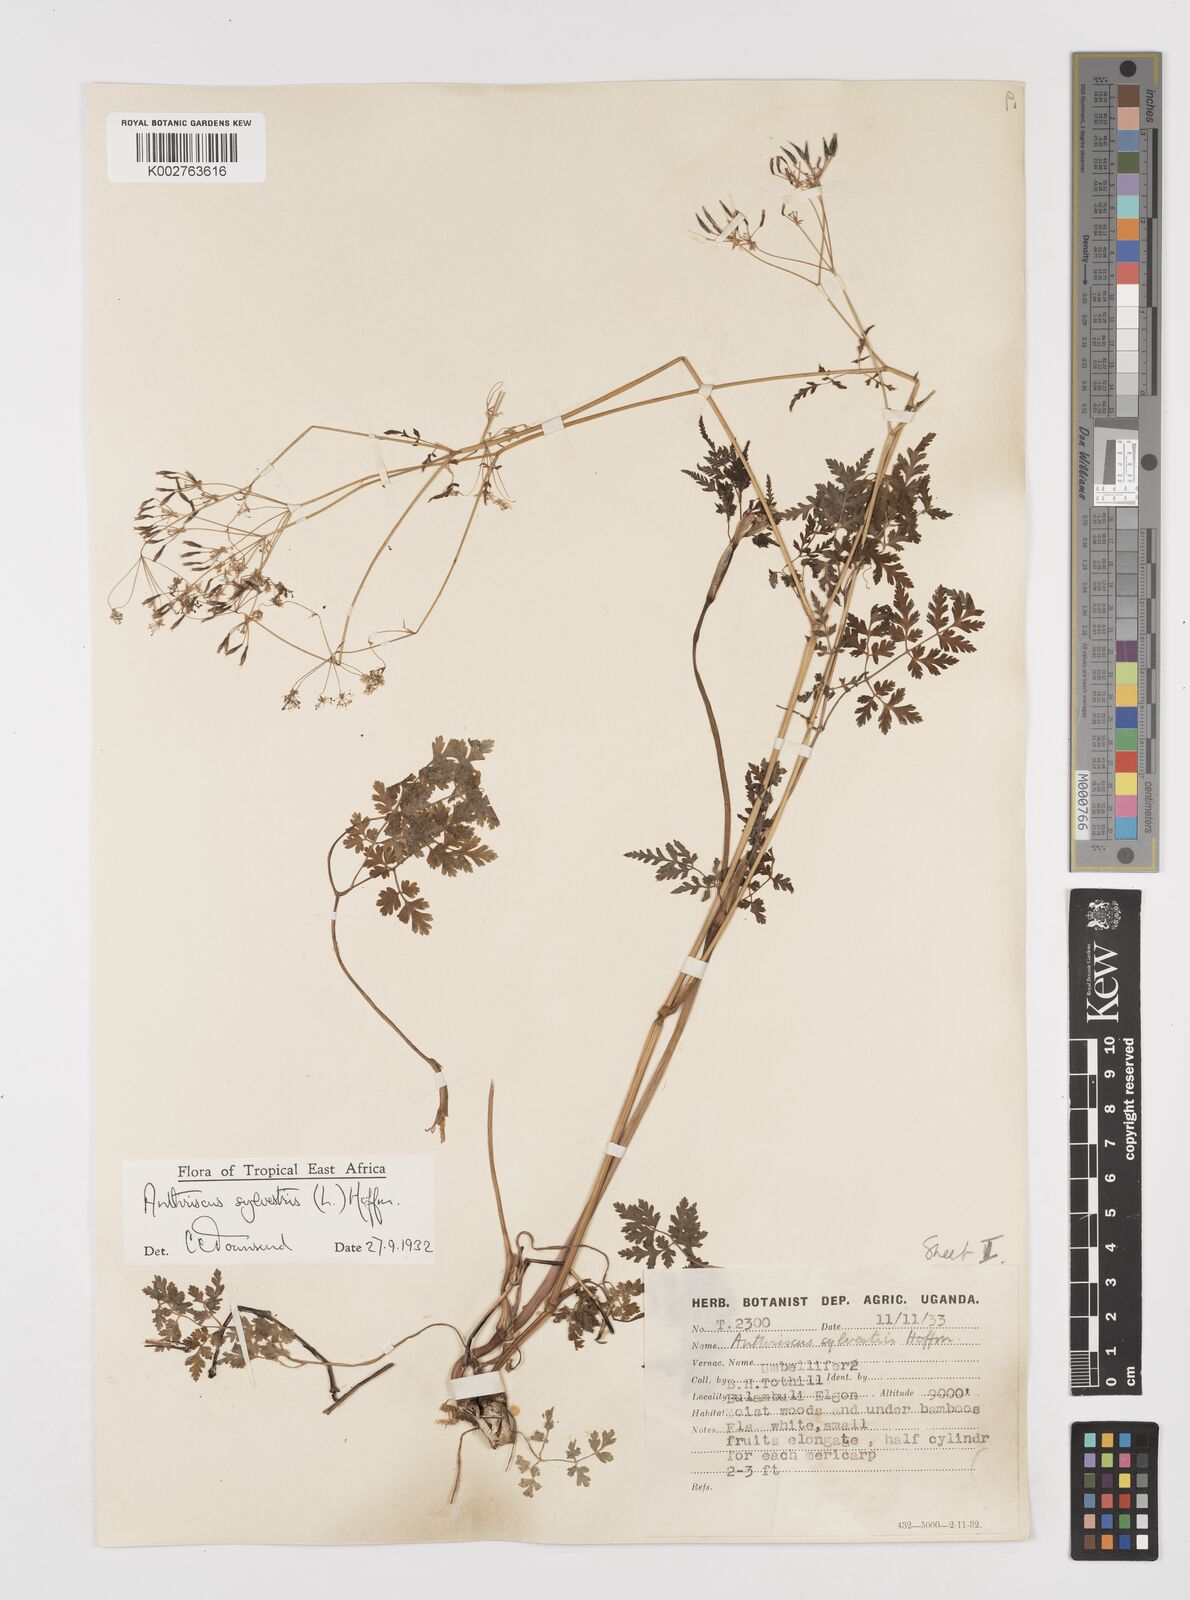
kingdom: Plantae
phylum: Tracheophyta
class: Magnoliopsida
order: Apiales
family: Apiaceae
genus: Anthriscus
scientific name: Anthriscus sylvestris
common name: Cow parsley
